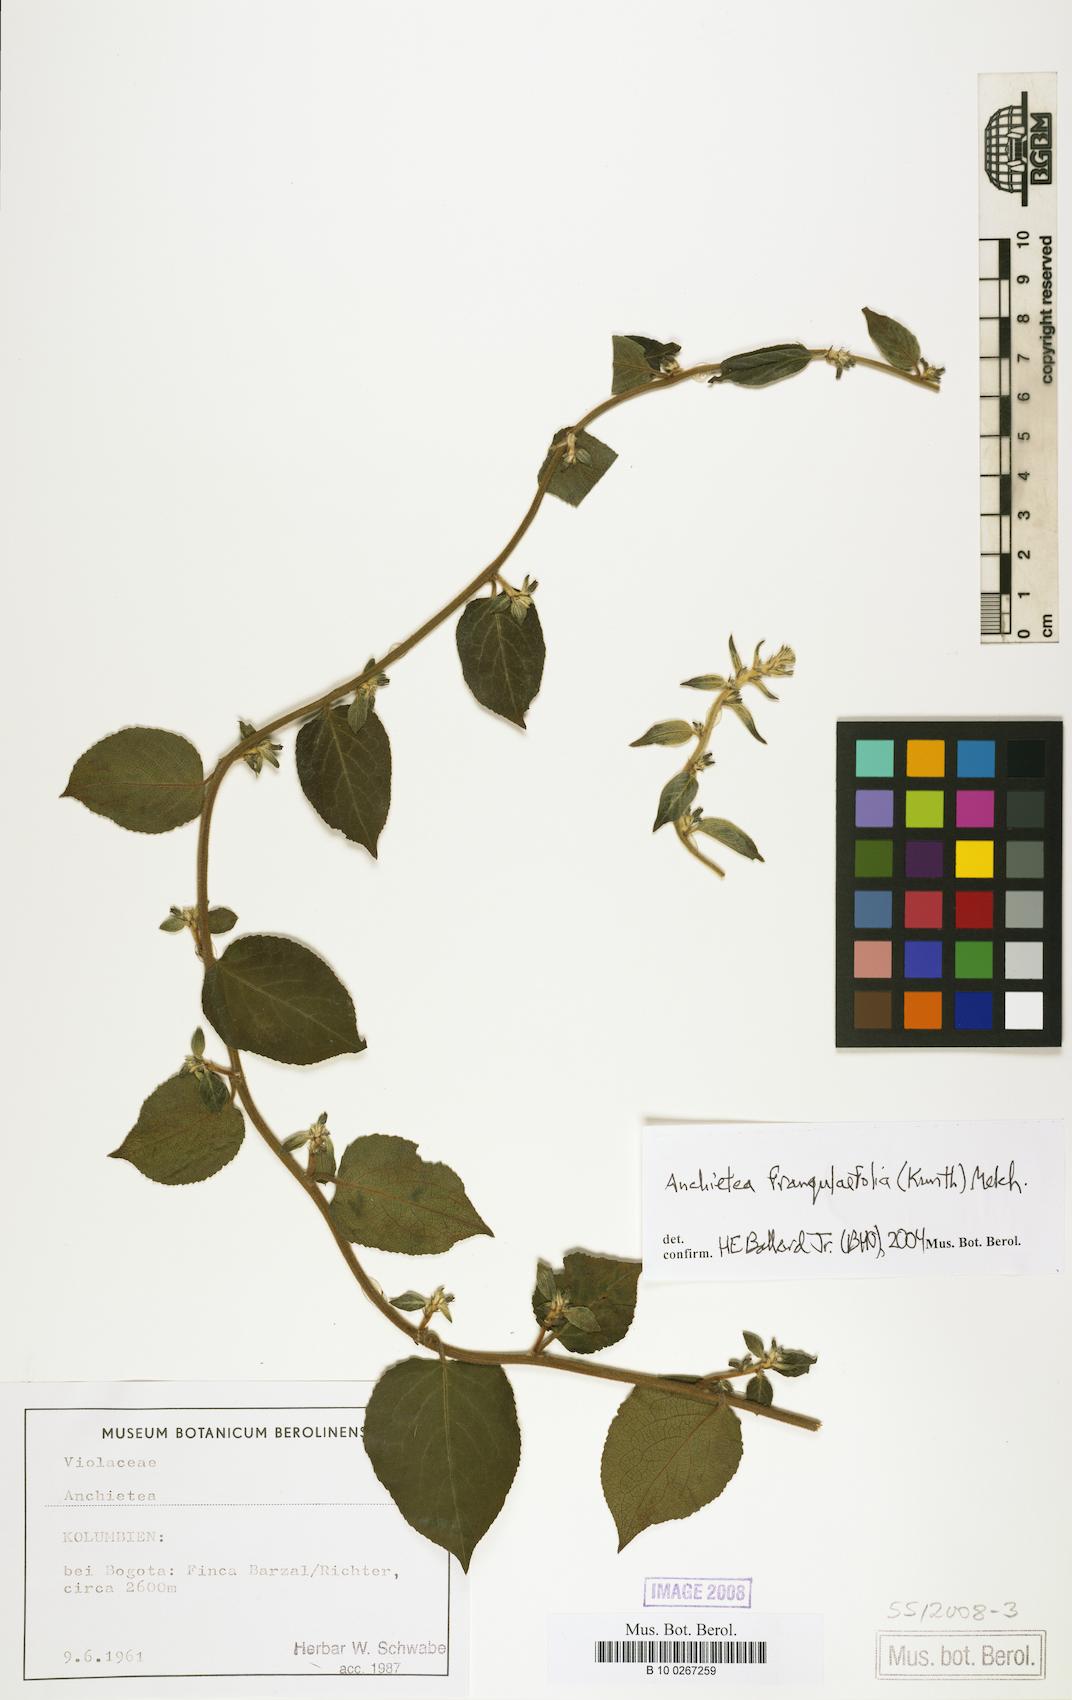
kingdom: Plantae
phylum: Tracheophyta
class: Magnoliopsida
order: Malpighiales
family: Violaceae
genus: Anchietea
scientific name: Anchietea frangulifolia
